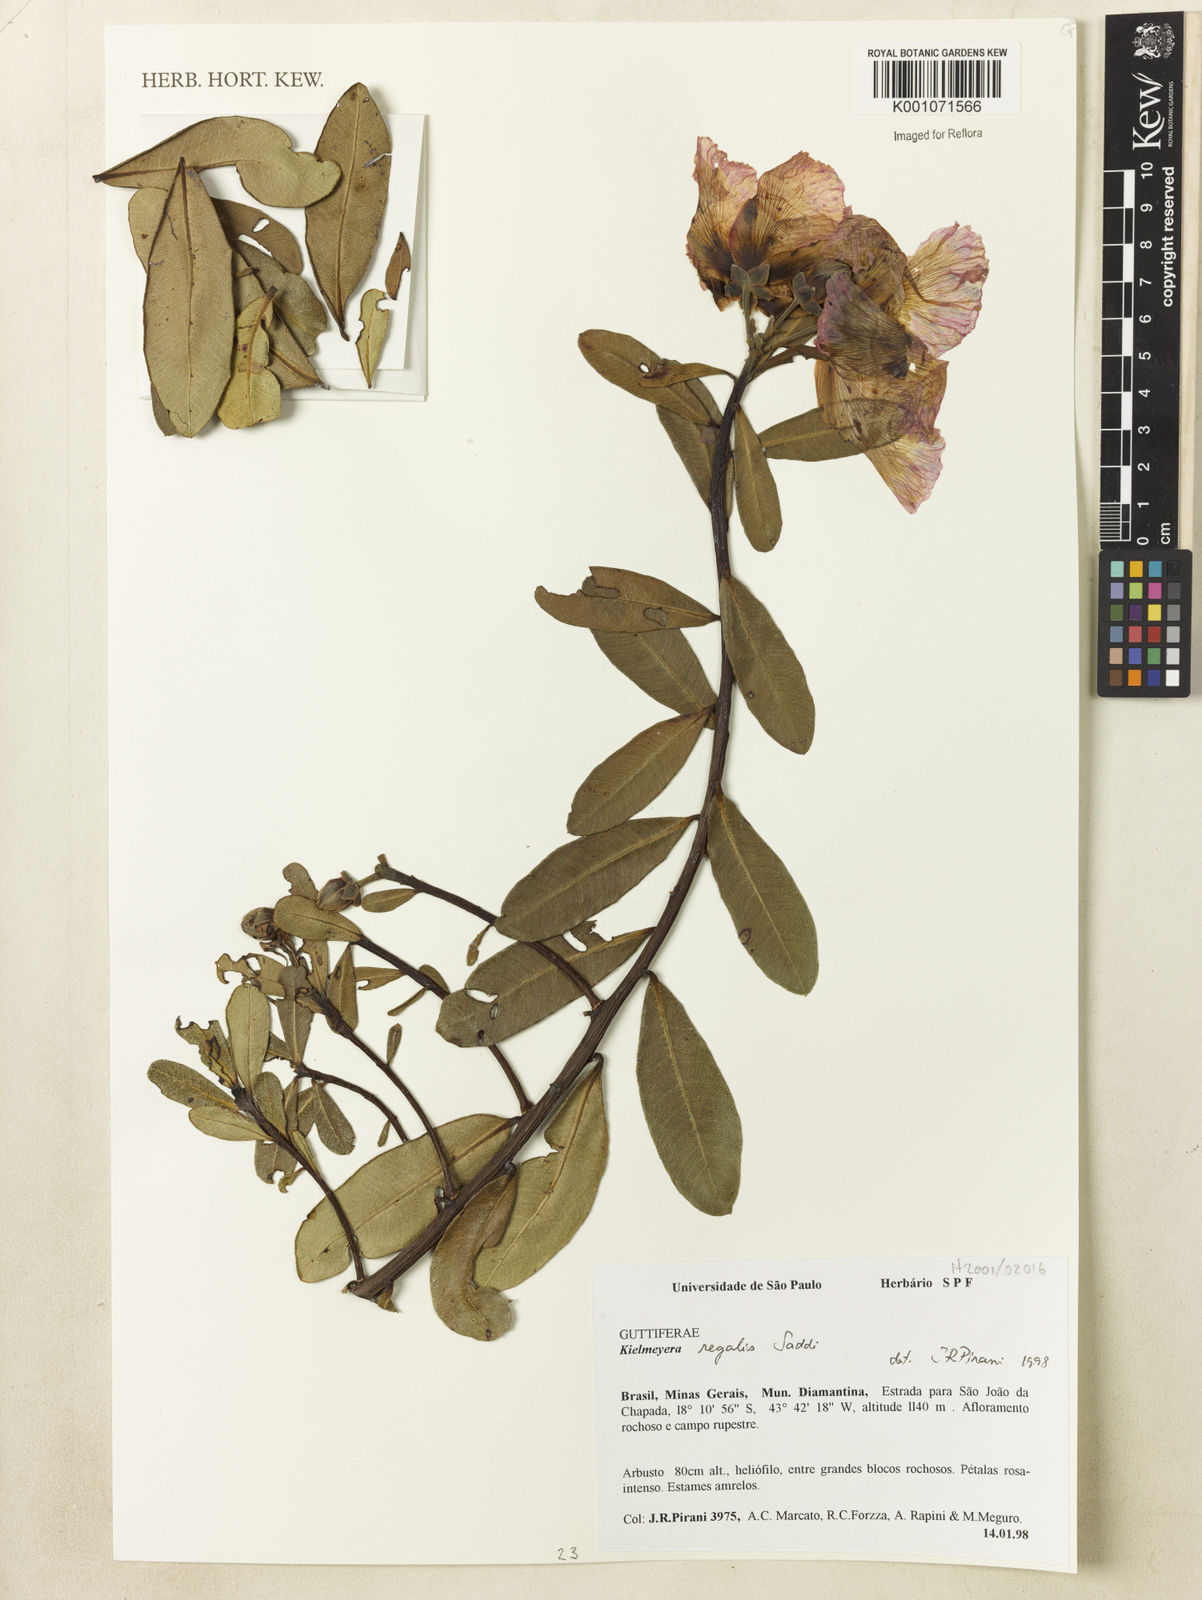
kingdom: Plantae
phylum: Tracheophyta
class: Magnoliopsida
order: Malpighiales
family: Calophyllaceae
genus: Kielmeyera
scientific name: Kielmeyera regalis
